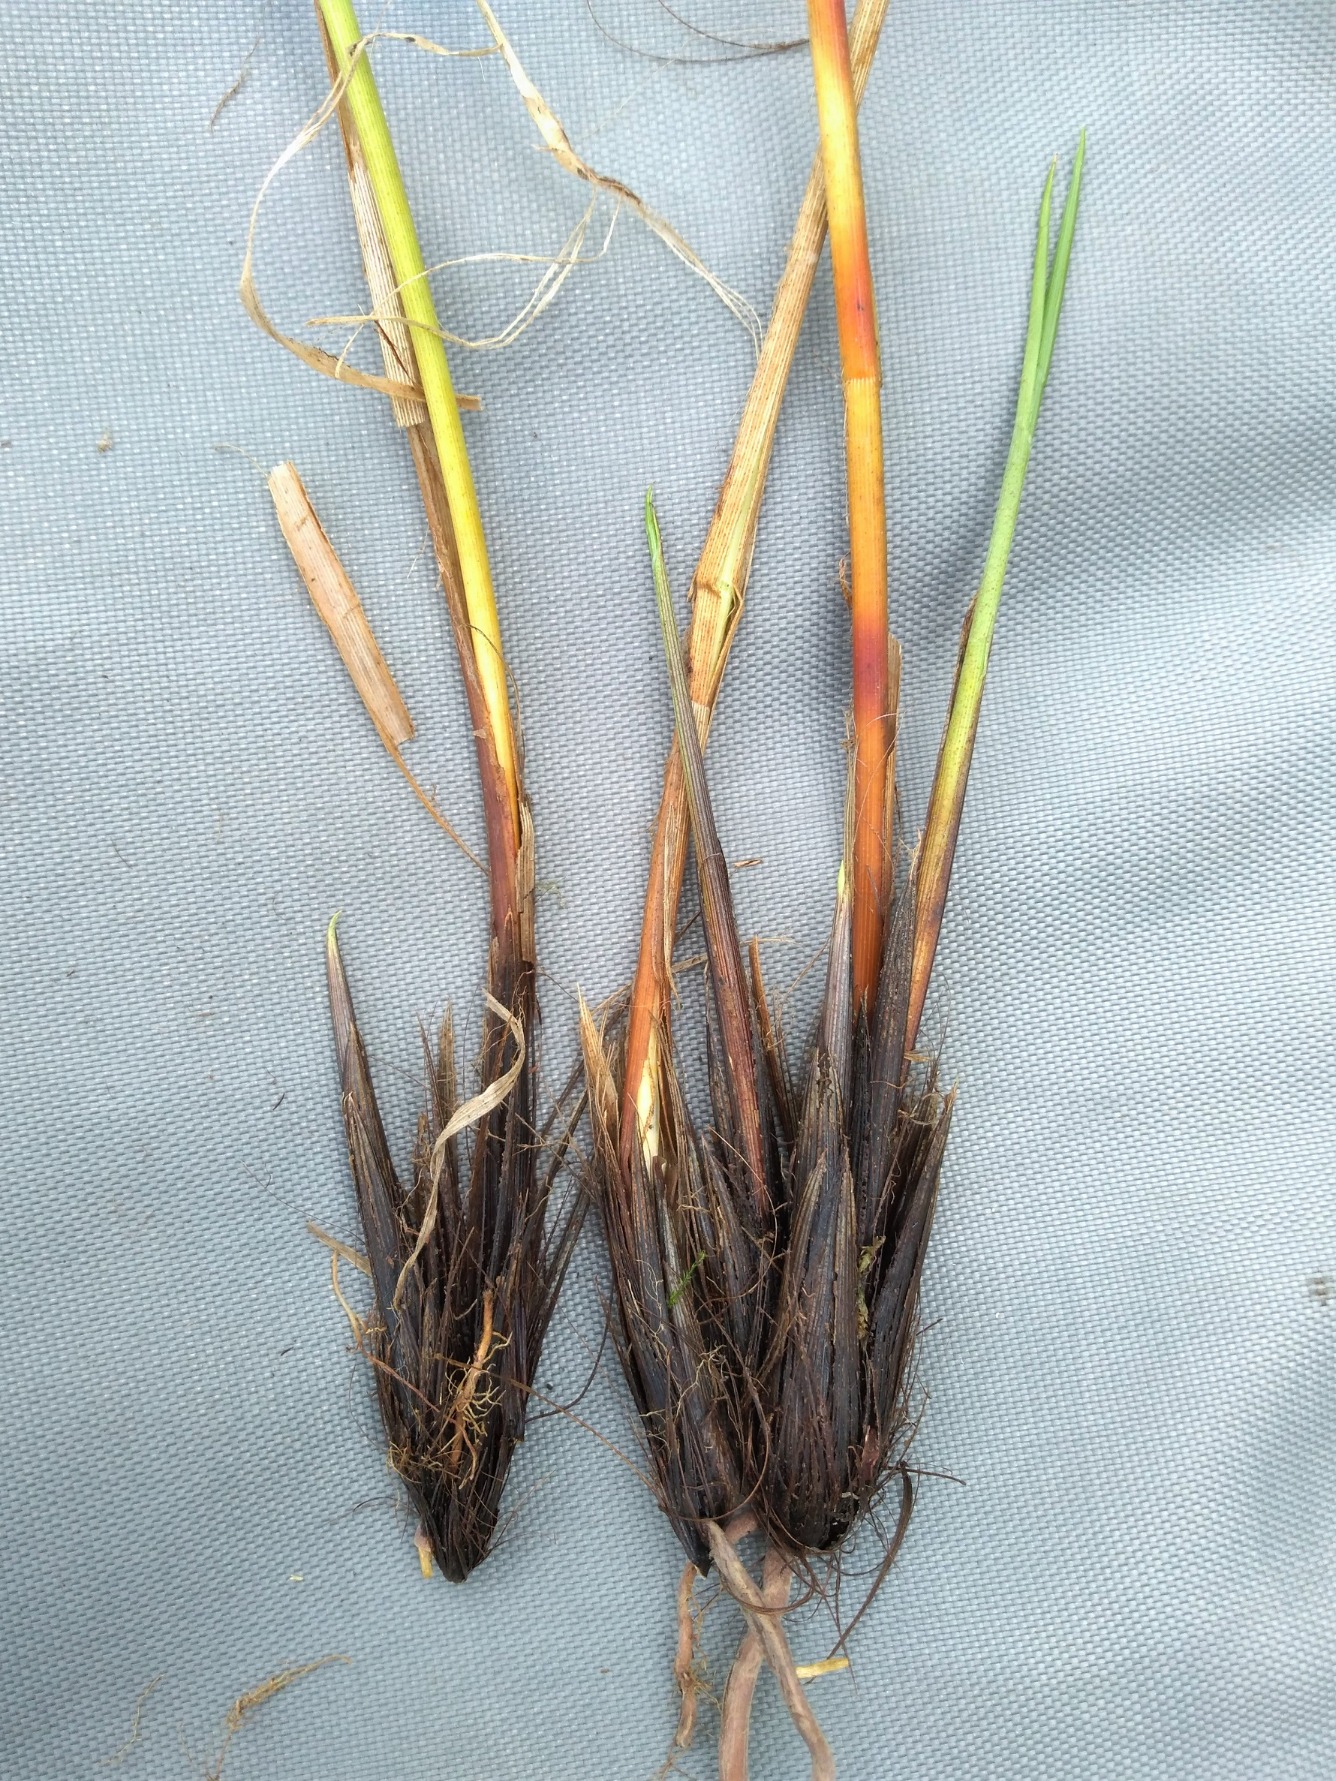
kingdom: Plantae
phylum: Tracheophyta
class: Liliopsida
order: Poales
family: Cyperaceae
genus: Carex
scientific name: Carex appropinquata
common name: Langakset star
